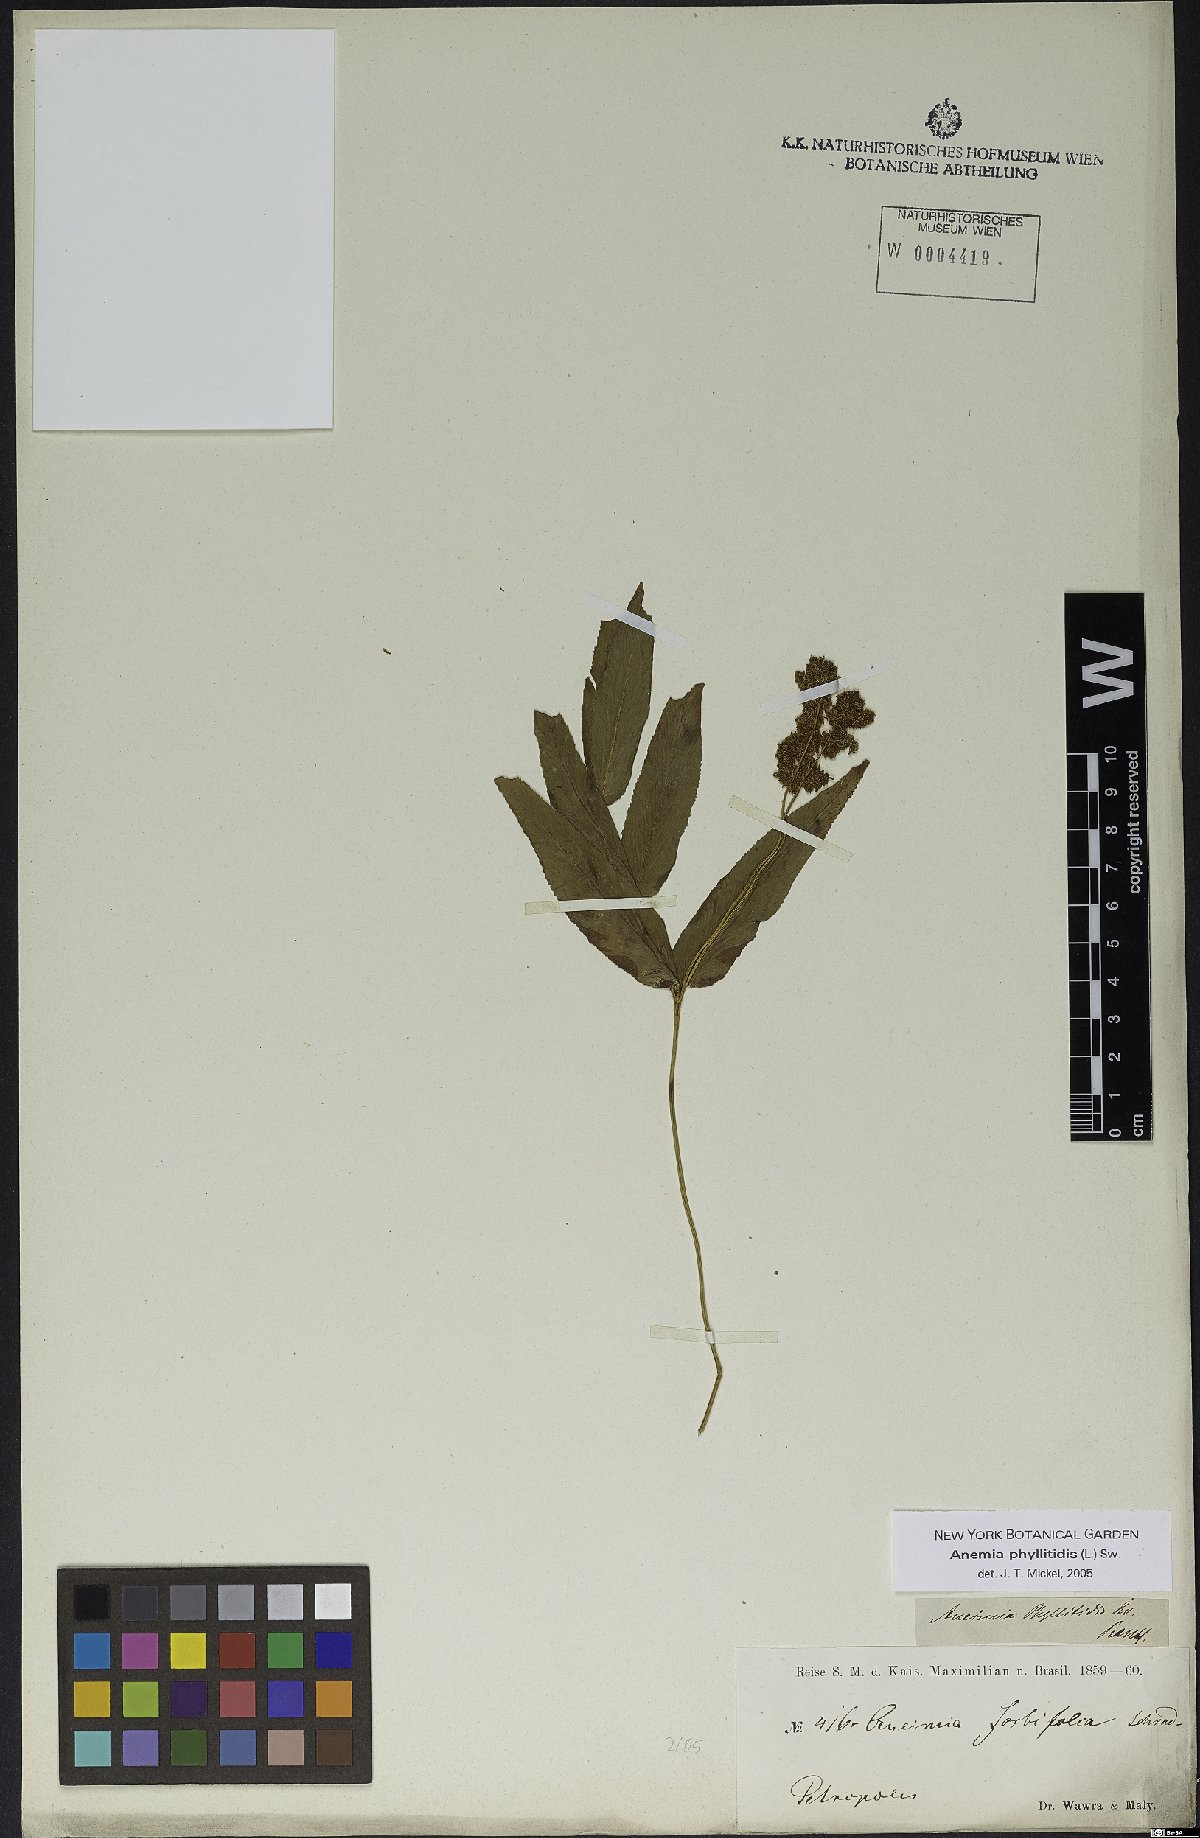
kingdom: Plantae
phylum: Tracheophyta
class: Polypodiopsida
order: Schizaeales
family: Anemiaceae
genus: Anemia
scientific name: Anemia phyllitidis
